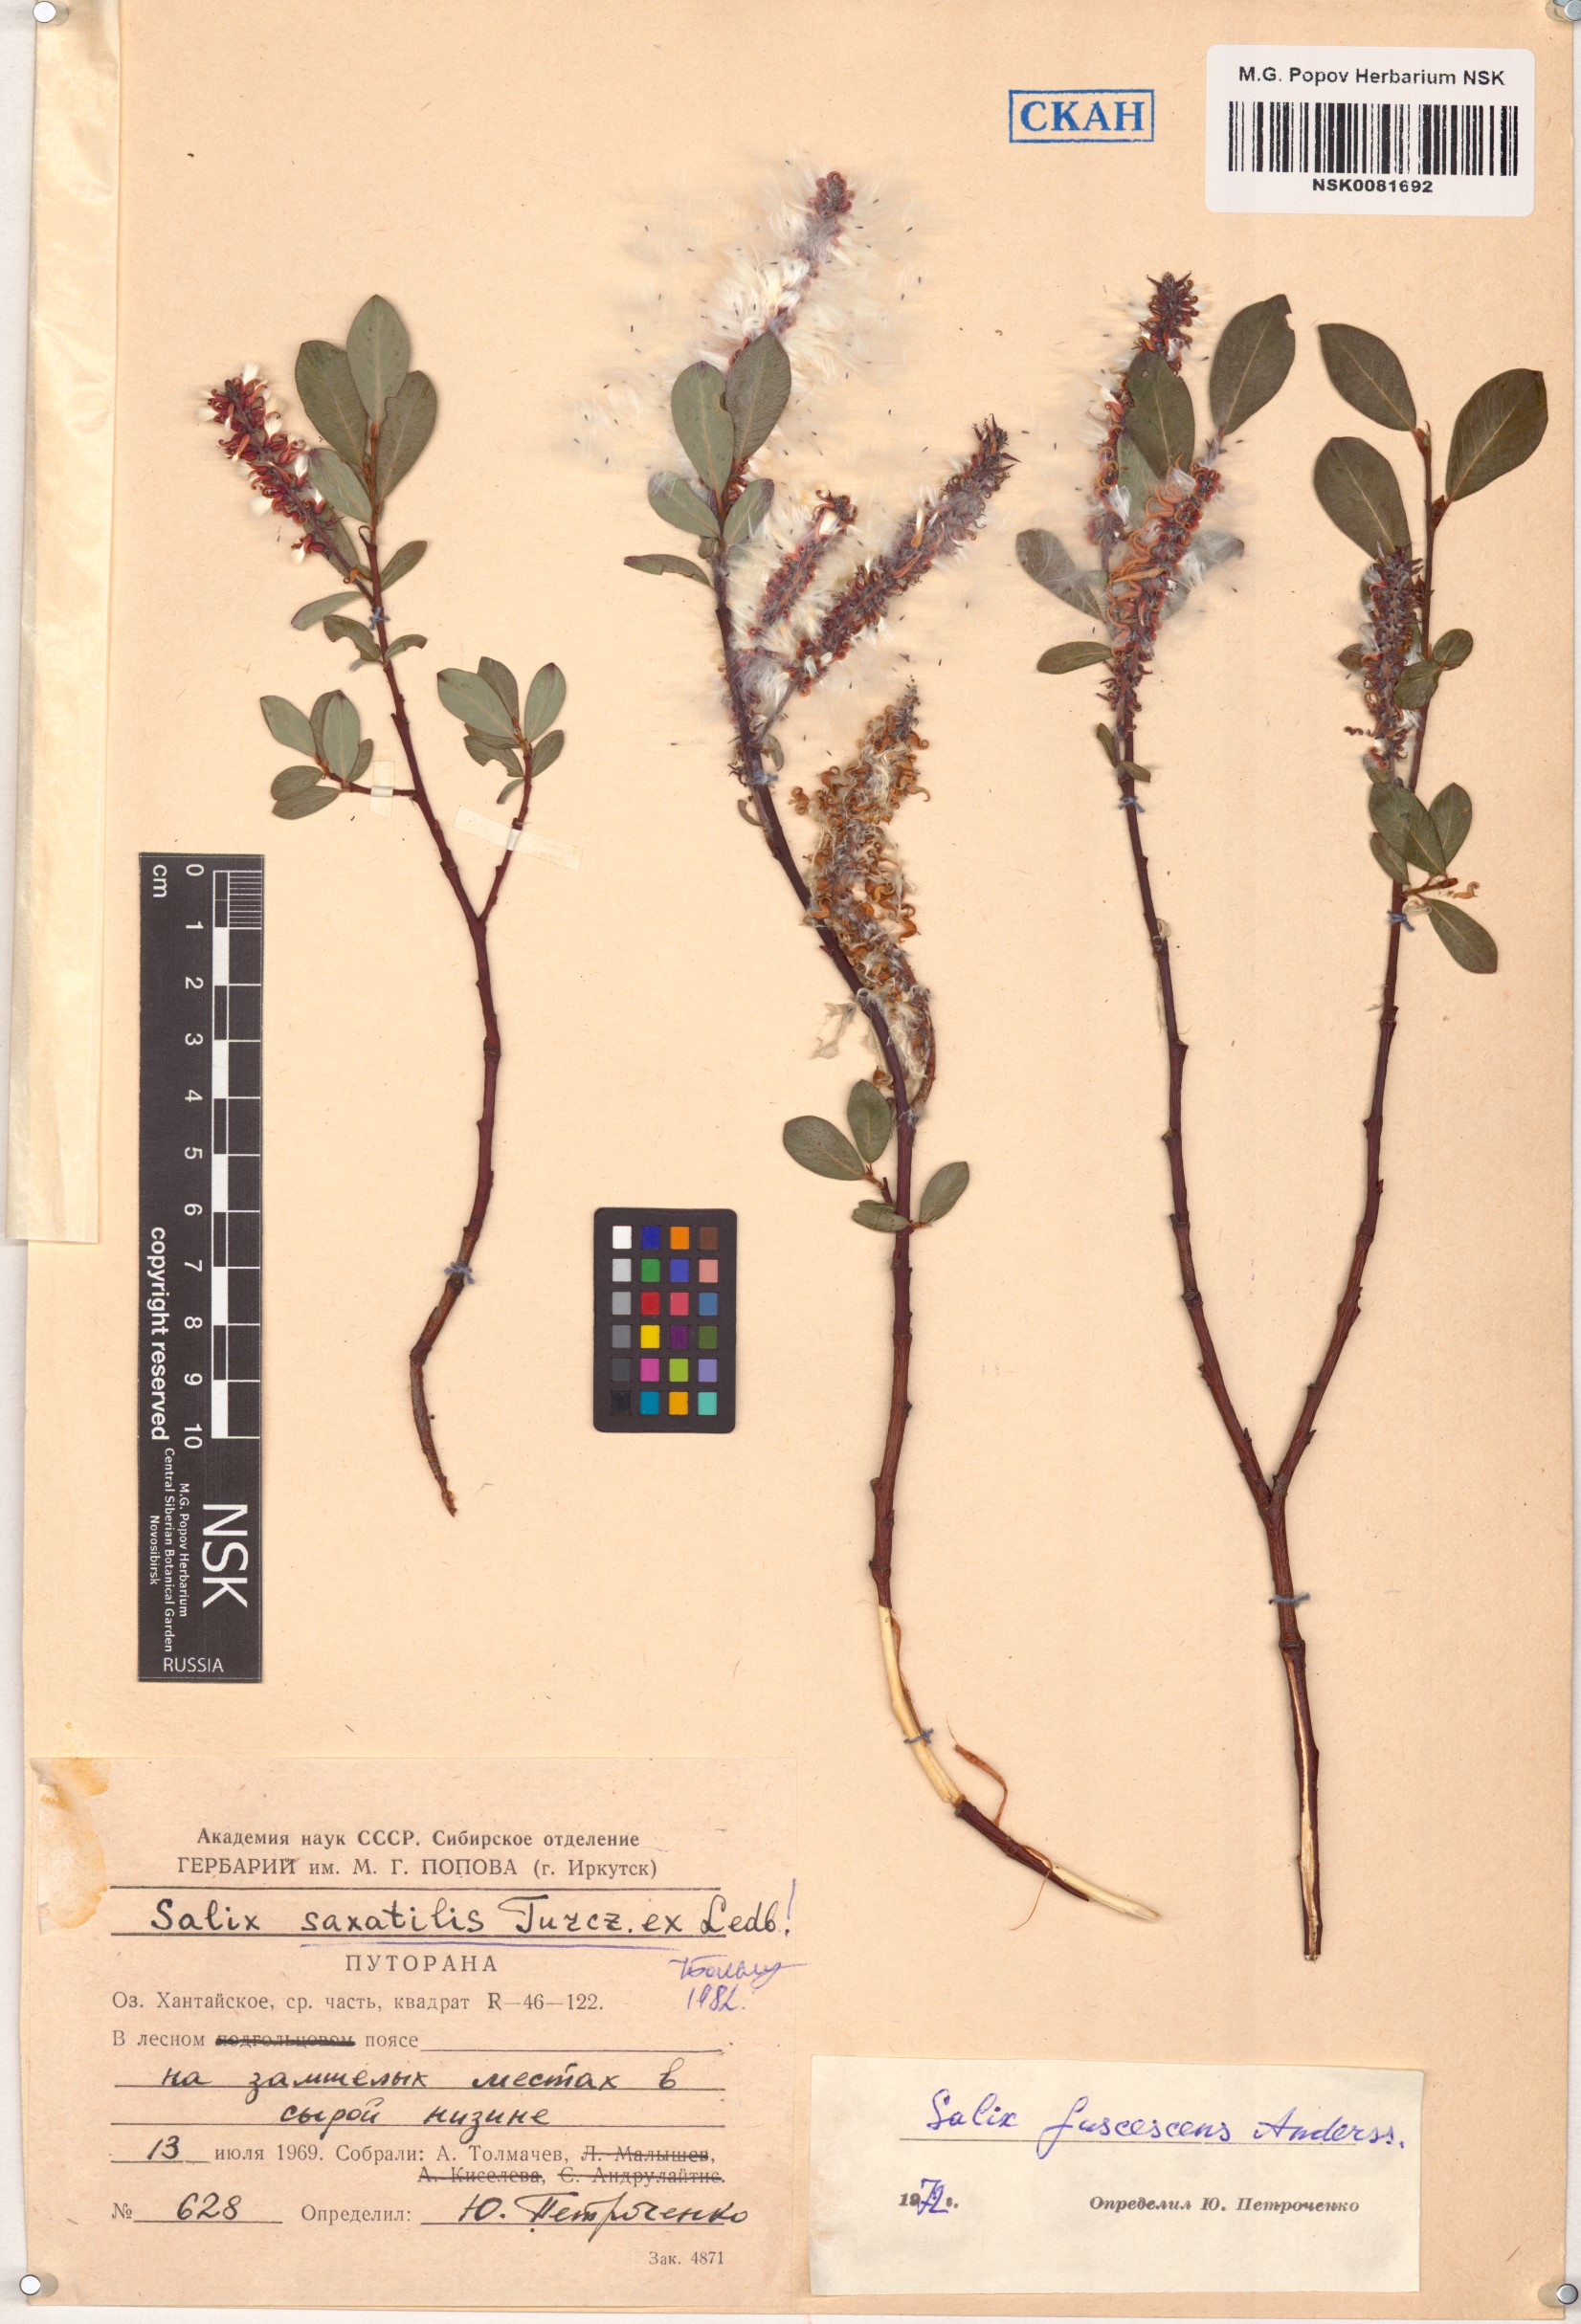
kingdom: Plantae
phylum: Tracheophyta
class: Magnoliopsida
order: Malpighiales
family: Salicaceae
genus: Salix
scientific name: Salix saxatilis
